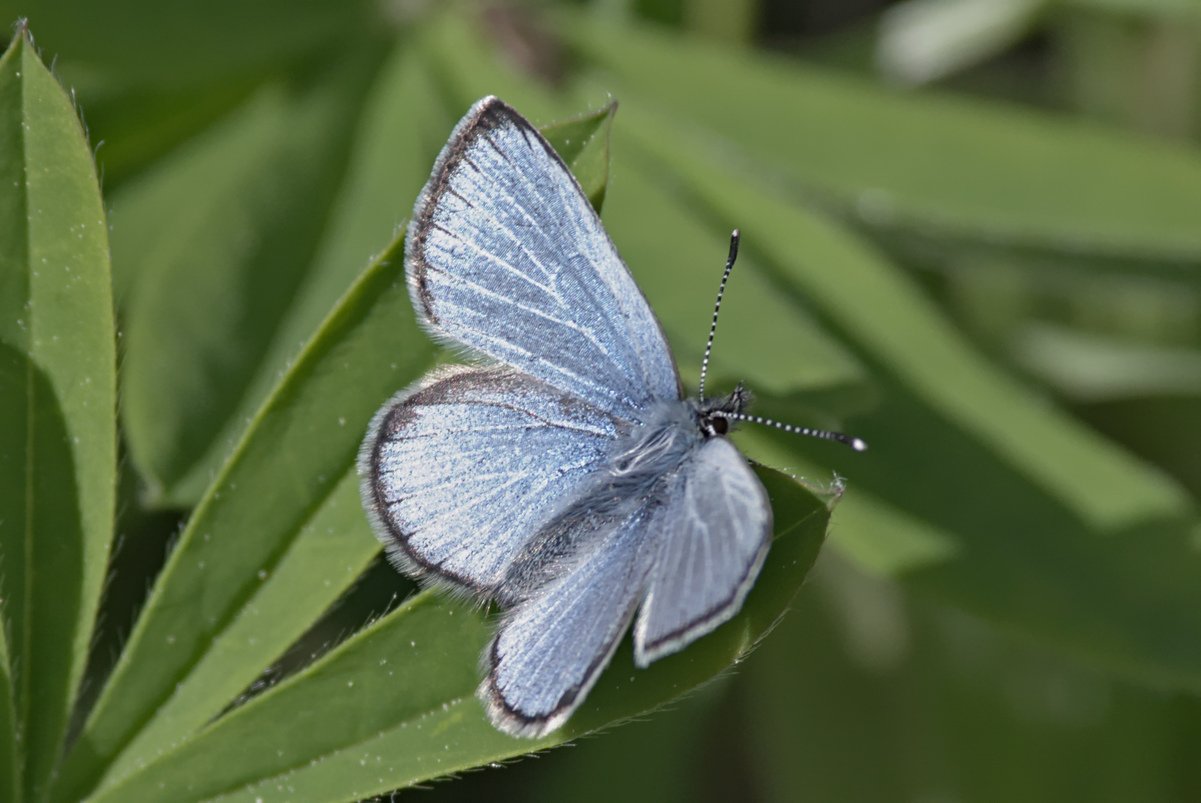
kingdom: Animalia
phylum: Arthropoda
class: Insecta
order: Lepidoptera
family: Lycaenidae
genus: Glaucopsyche
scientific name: Glaucopsyche lygdamus
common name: Silvery Blue
